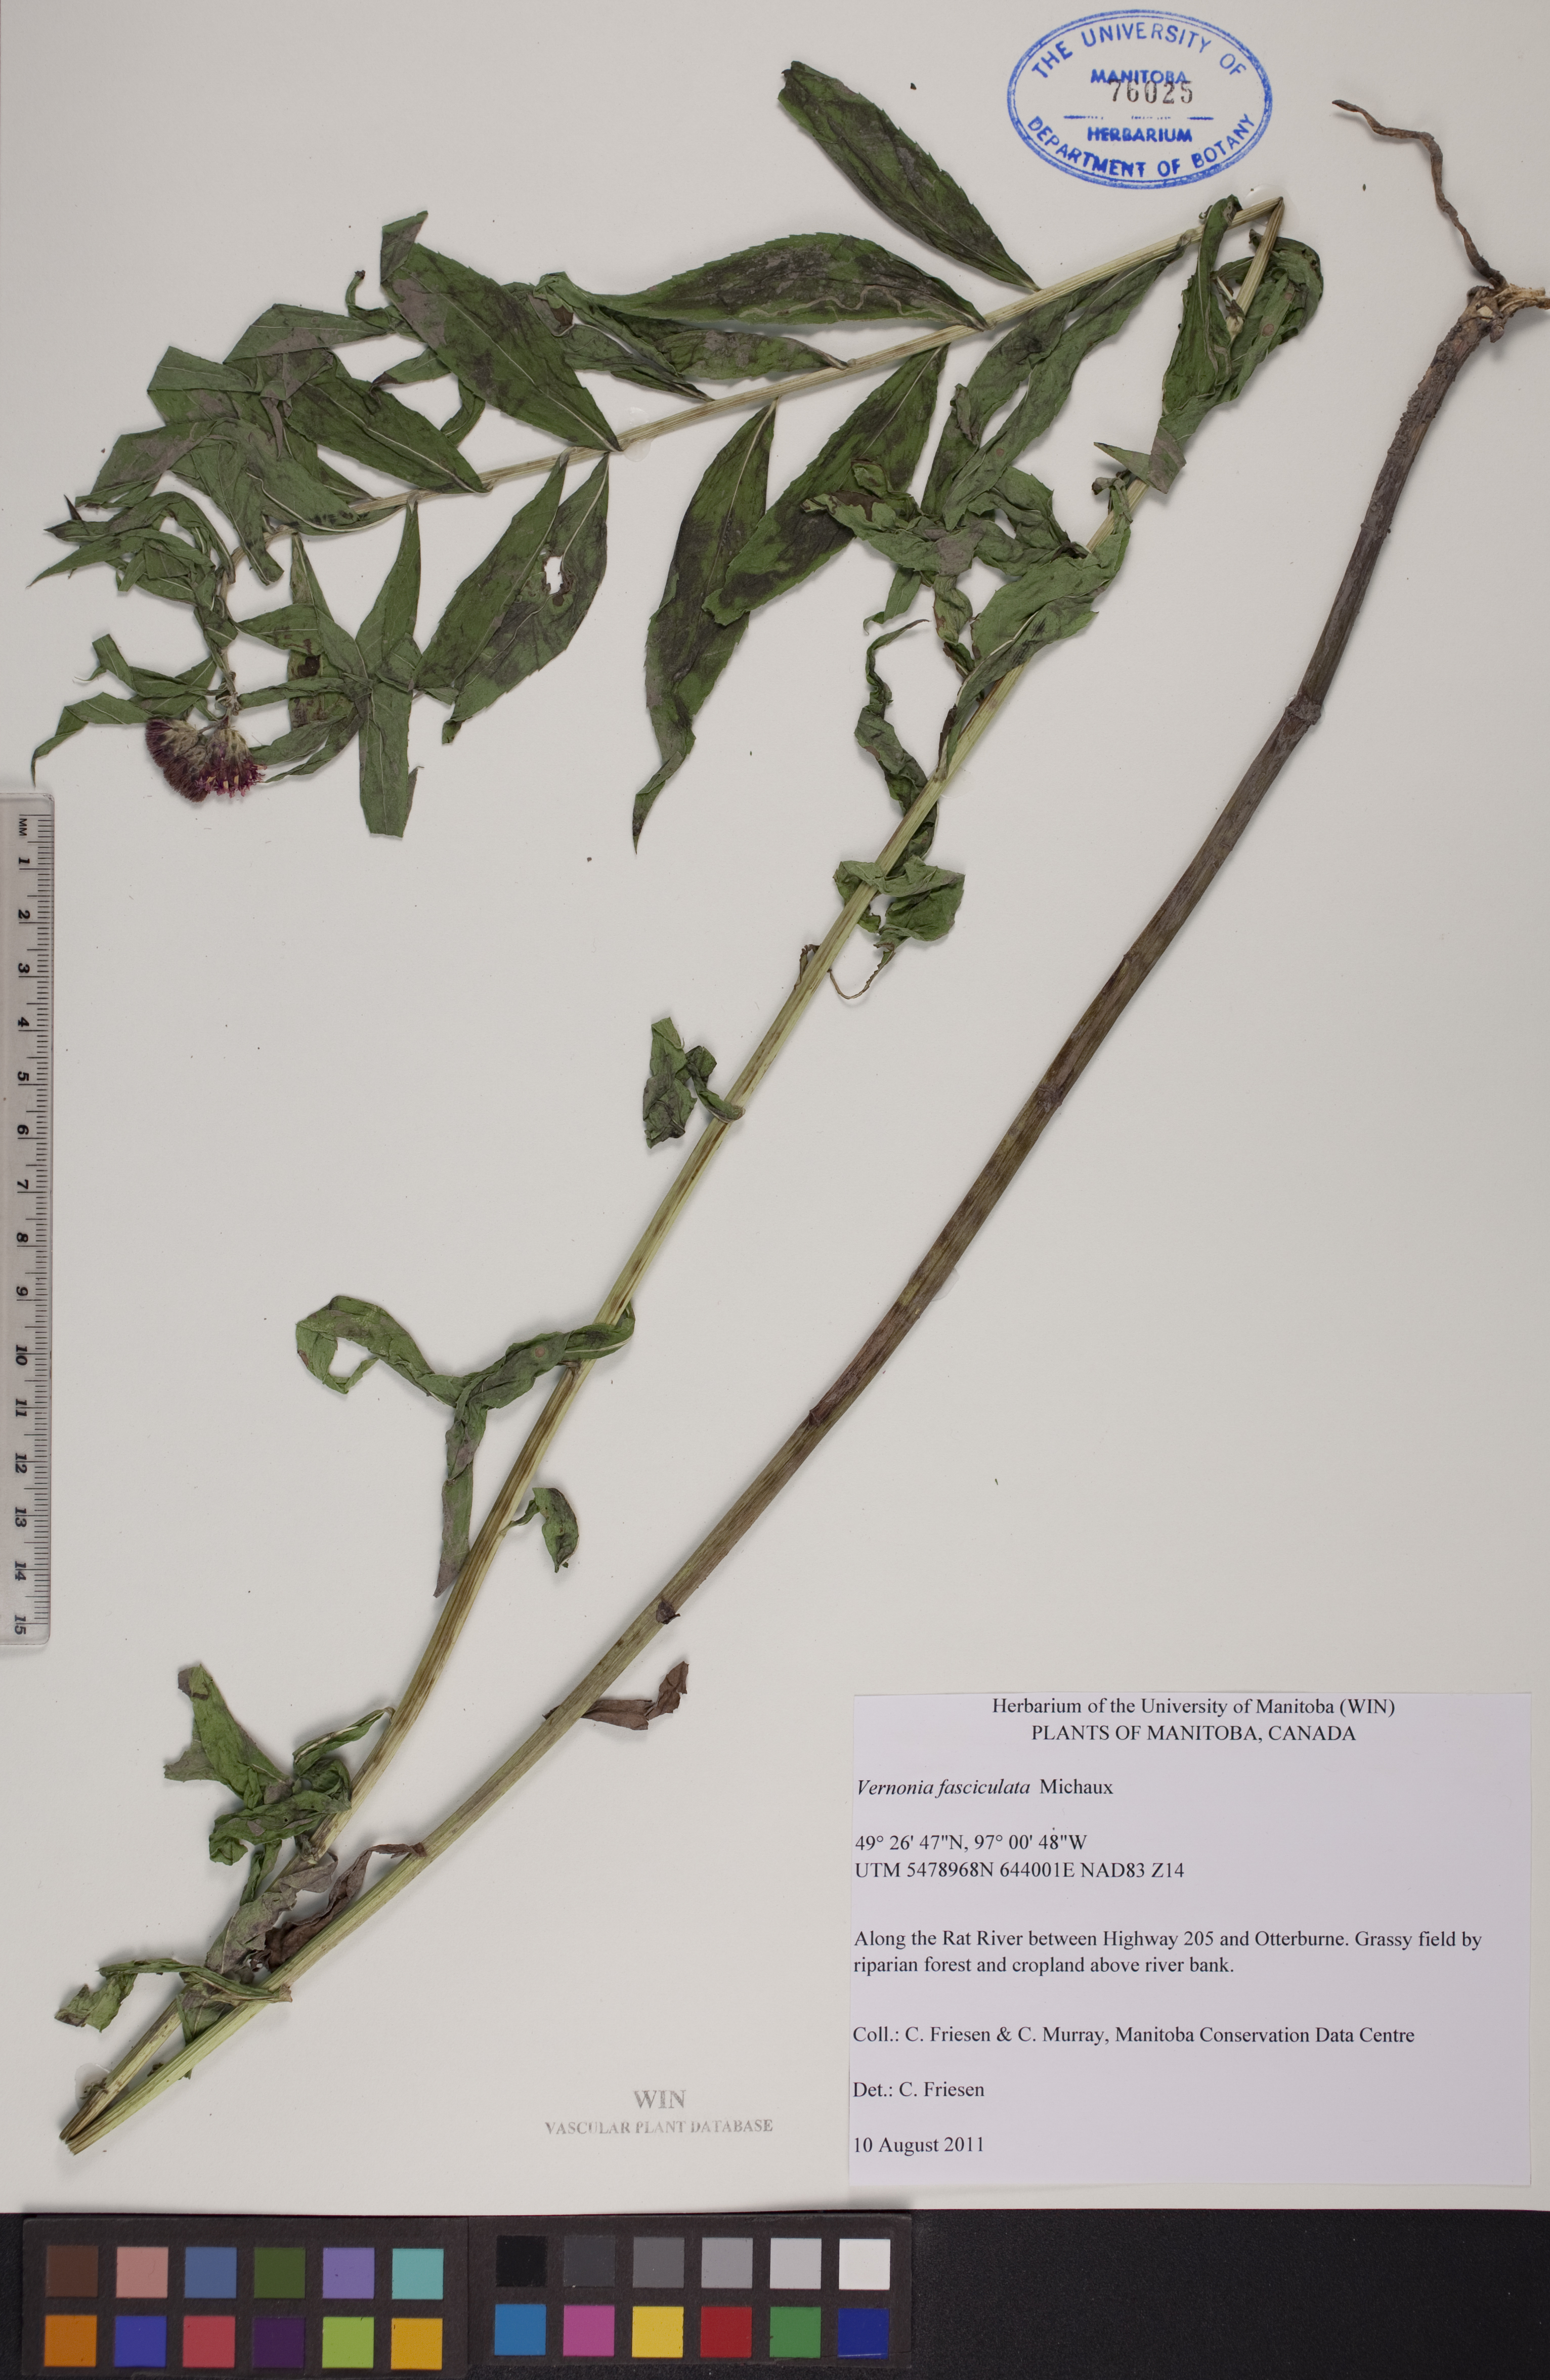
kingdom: Plantae
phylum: Tracheophyta
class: Magnoliopsida
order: Asterales
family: Asteraceae
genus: Vernonia
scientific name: Vernonia fasciculata
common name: Fascicled ironweed
